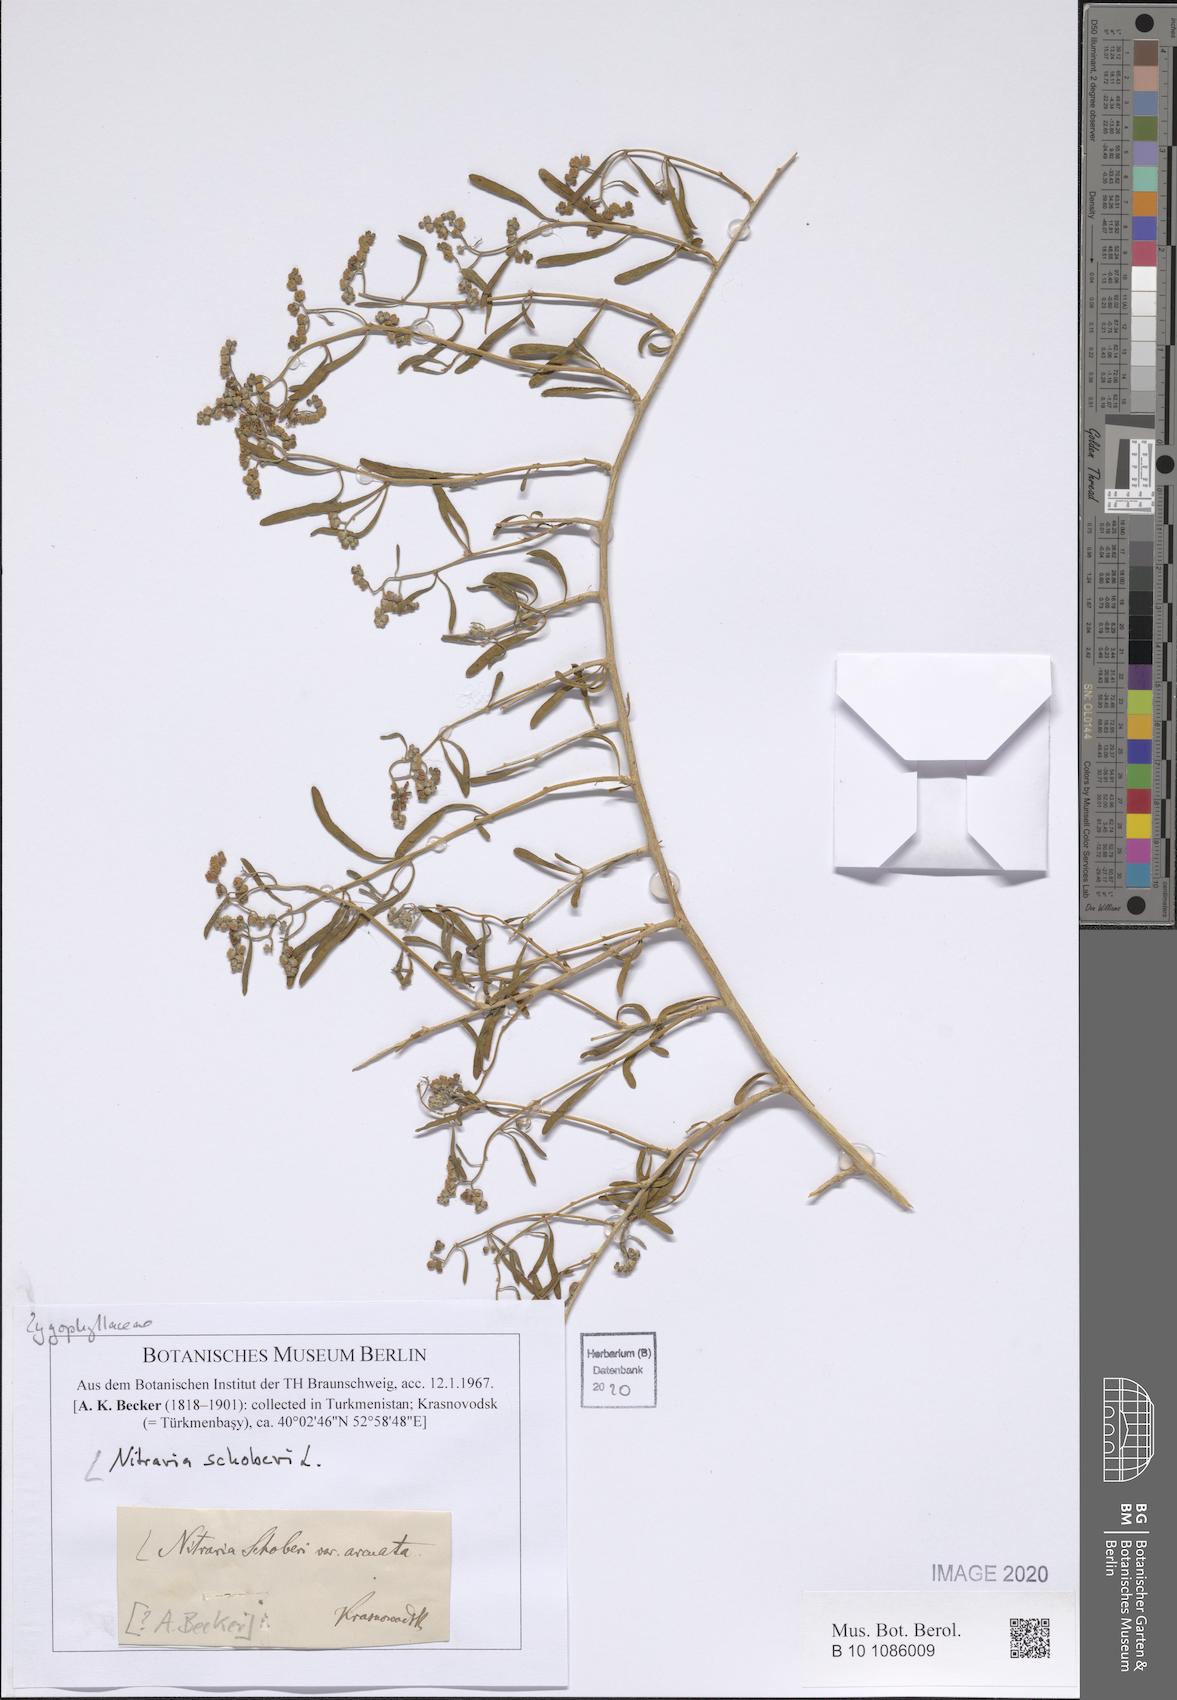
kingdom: Plantae
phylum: Tracheophyta
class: Magnoliopsida
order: Sapindales
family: Nitrariaceae
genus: Nitraria
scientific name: Nitraria schoberi
